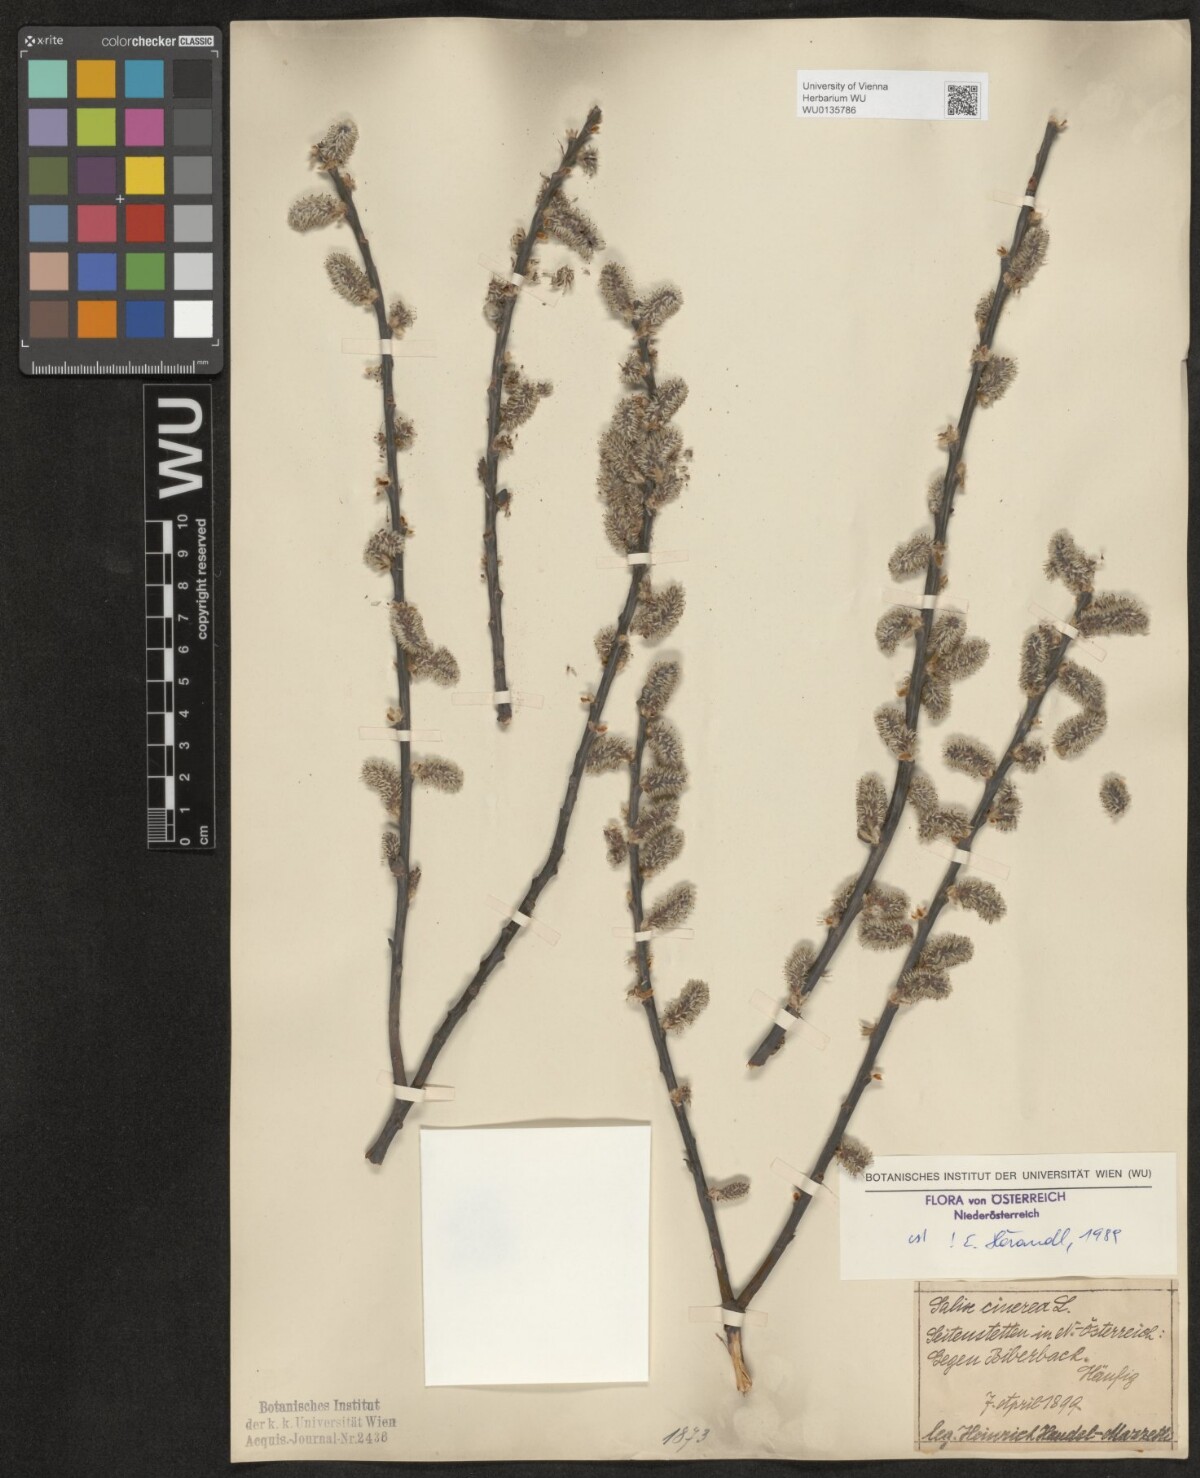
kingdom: Plantae
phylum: Tracheophyta
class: Magnoliopsida
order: Malpighiales
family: Salicaceae
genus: Salix
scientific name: Salix cinerea
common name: Common sallow
